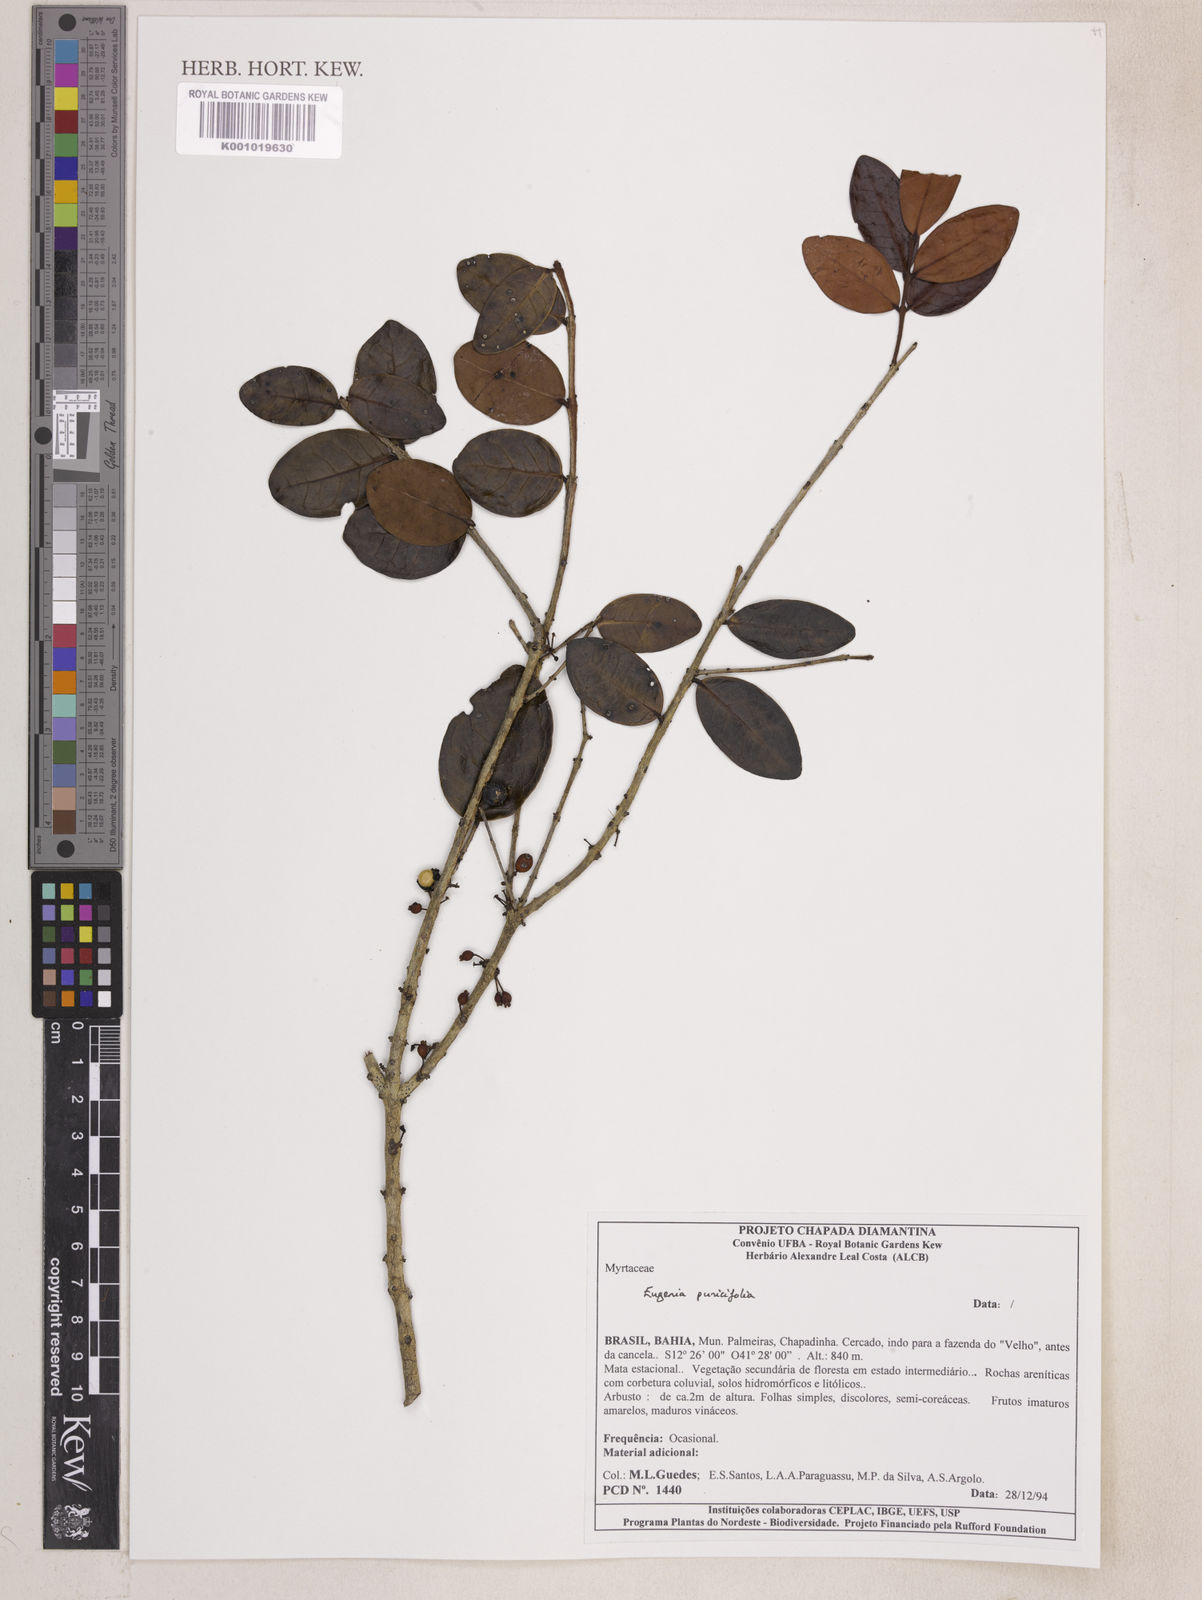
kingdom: Plantae
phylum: Tracheophyta
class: Magnoliopsida
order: Myrtales
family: Myrtaceae
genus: Eugenia
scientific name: Eugenia punicifolia
